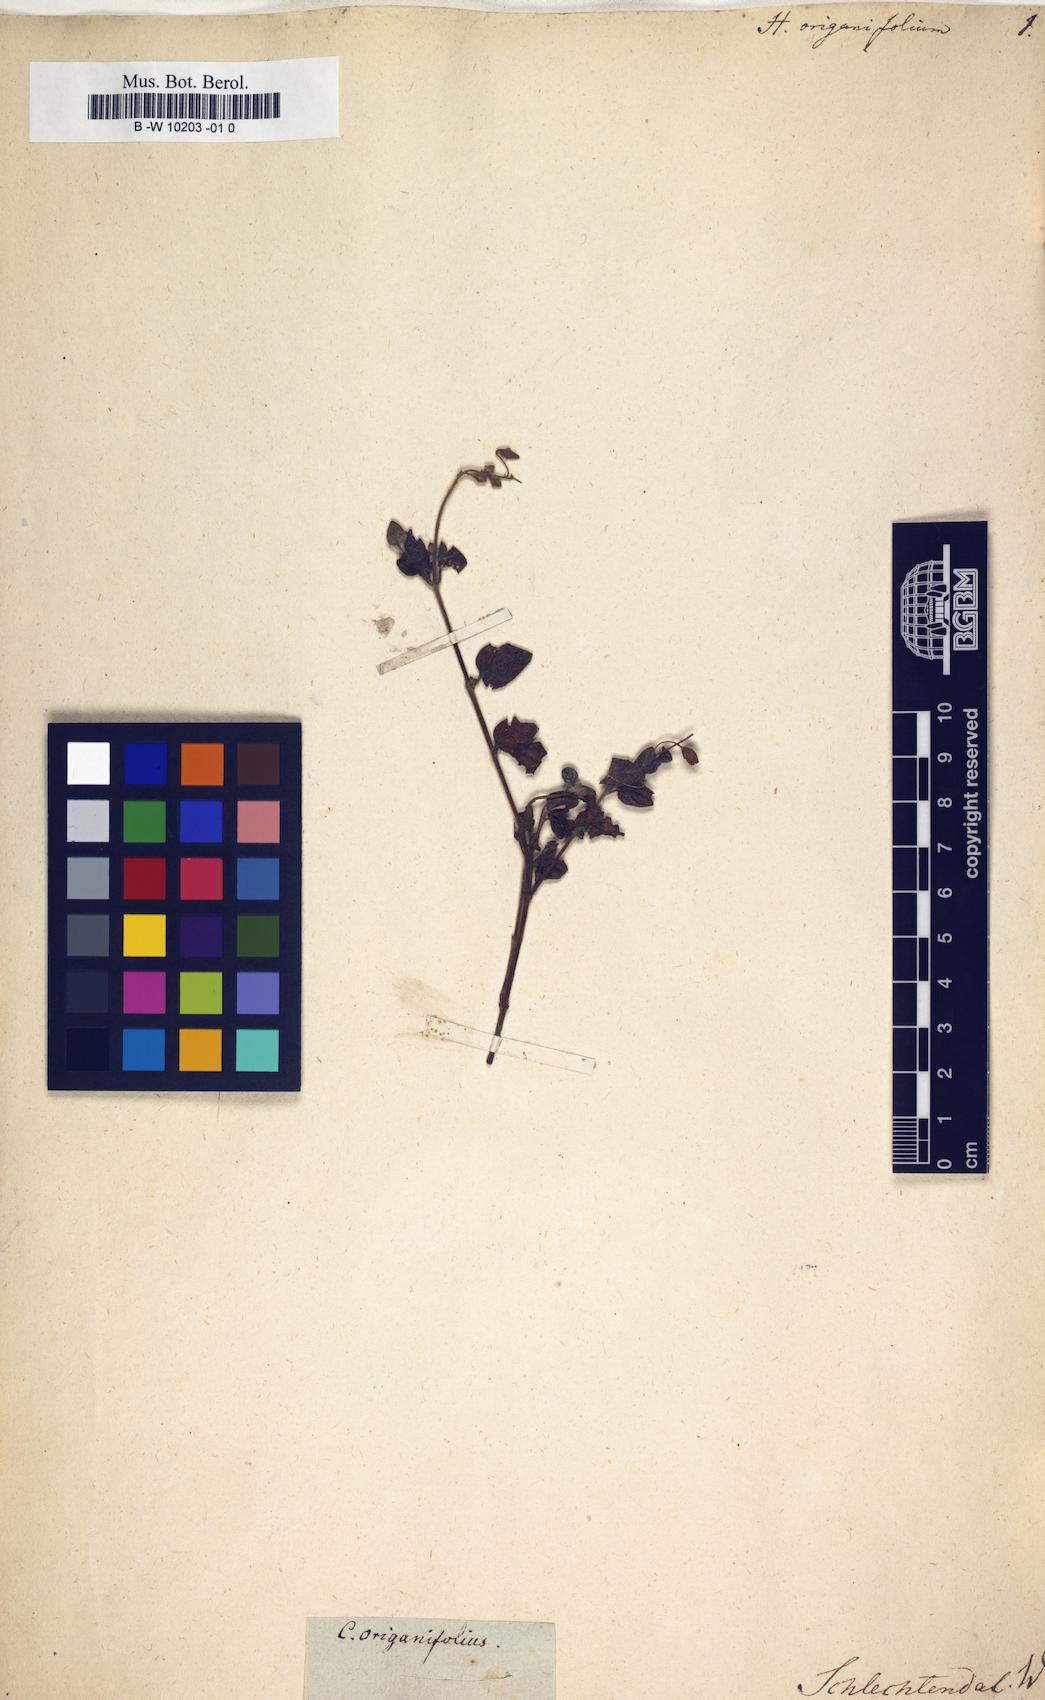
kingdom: Plantae
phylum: Tracheophyta
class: Magnoliopsida
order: Malvales
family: Cistaceae
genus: Helianthemum
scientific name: Helianthemum origanifolium
